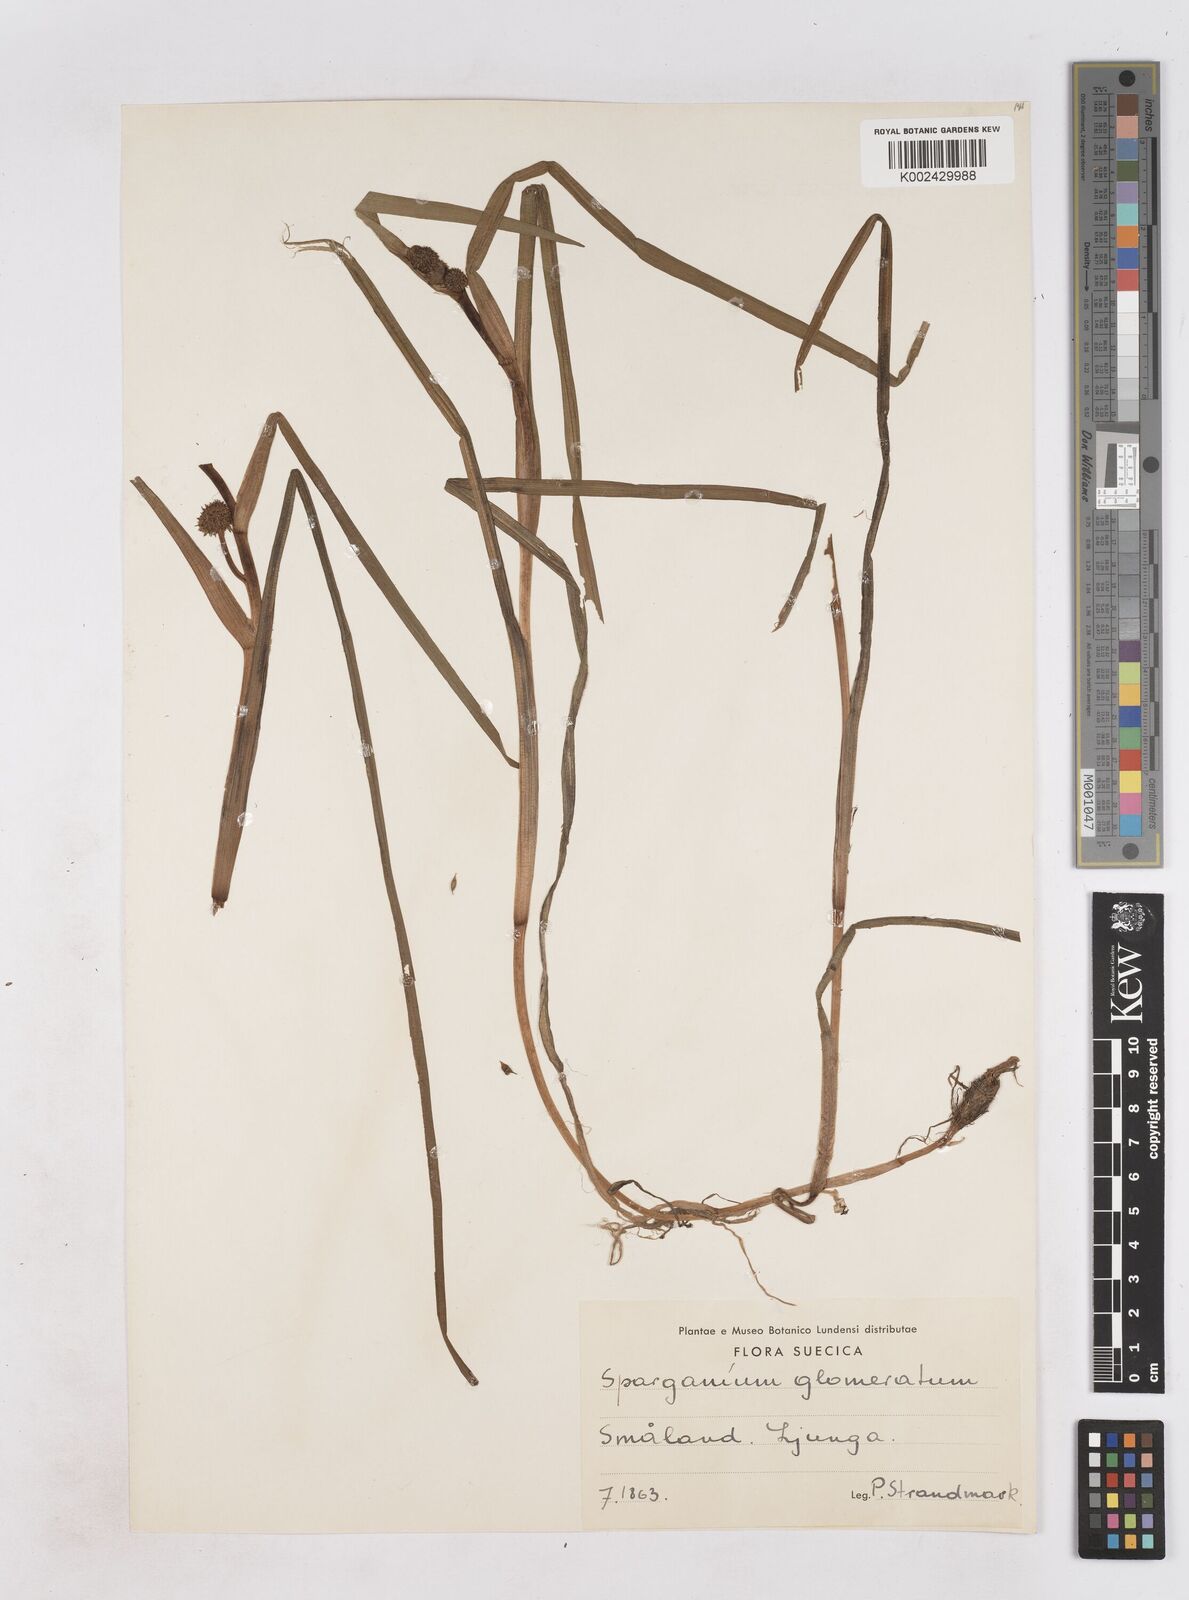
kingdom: Plantae
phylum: Tracheophyta
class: Liliopsida
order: Poales
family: Typhaceae
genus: Sparganium
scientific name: Sparganium angustifolium
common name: Floating bur-reed
